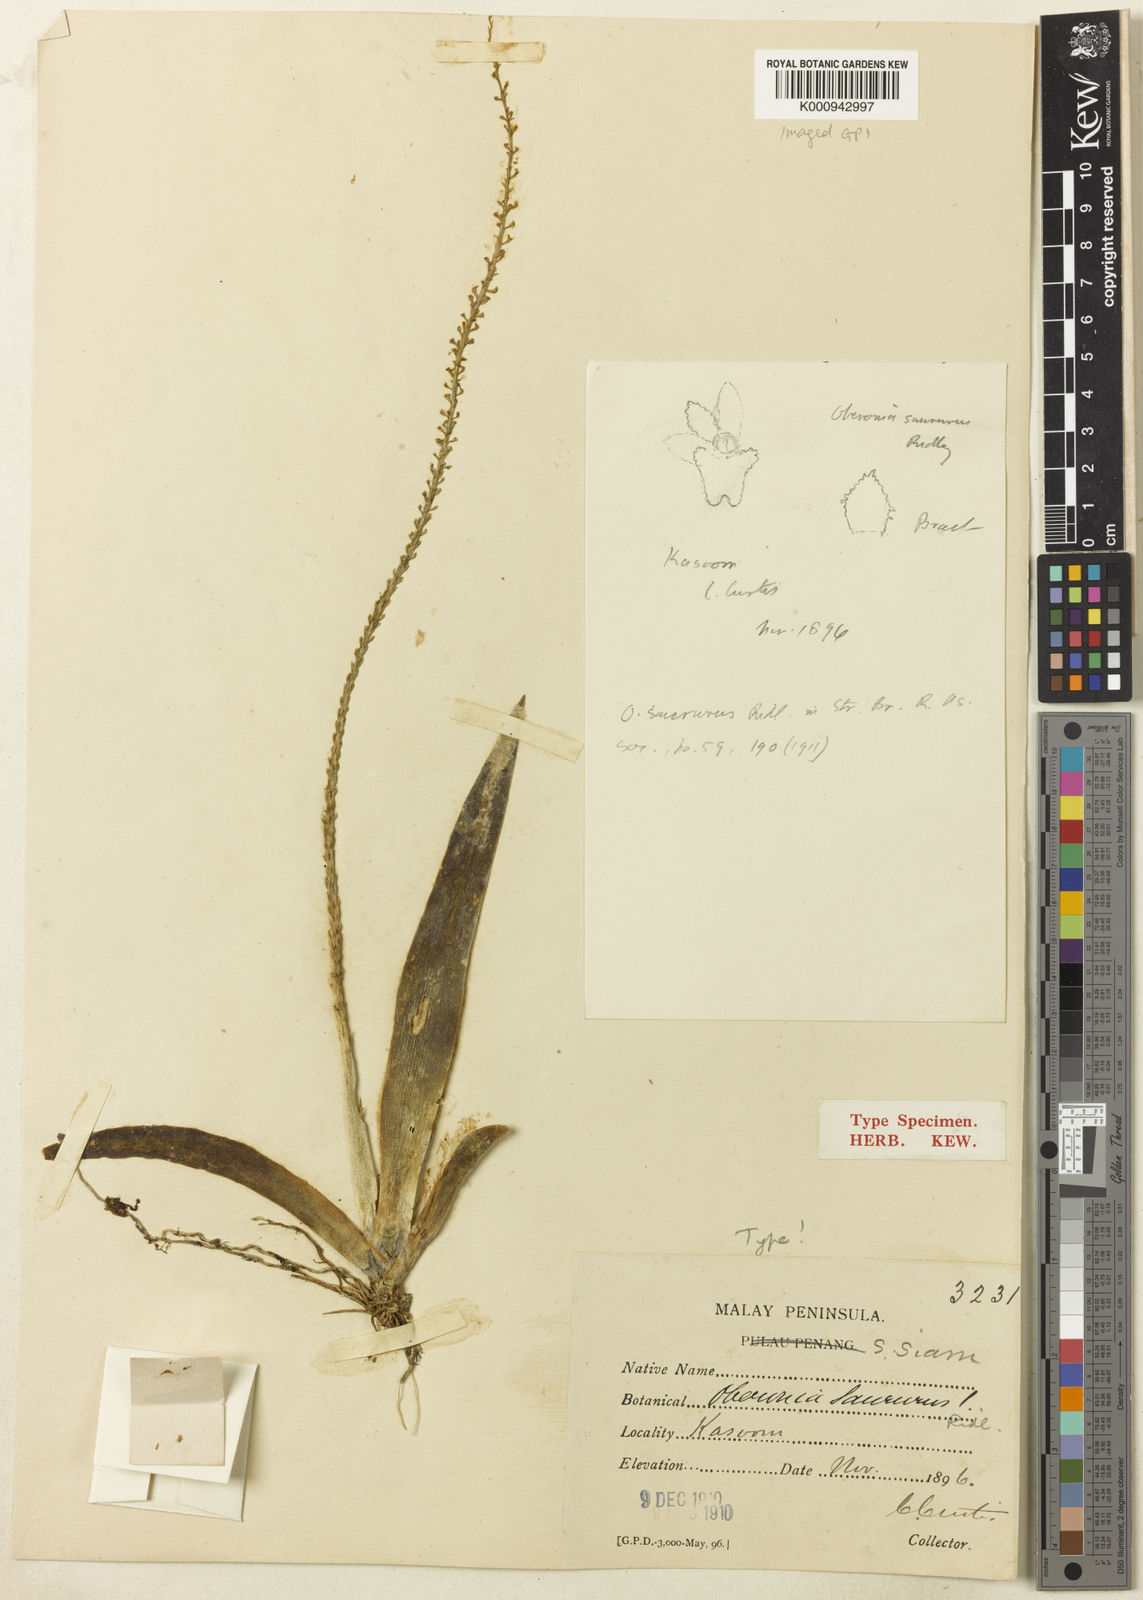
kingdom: Plantae
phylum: Tracheophyta
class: Liliopsida
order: Asparagales
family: Orchidaceae
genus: Oberonia
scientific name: Oberonia gammiei
